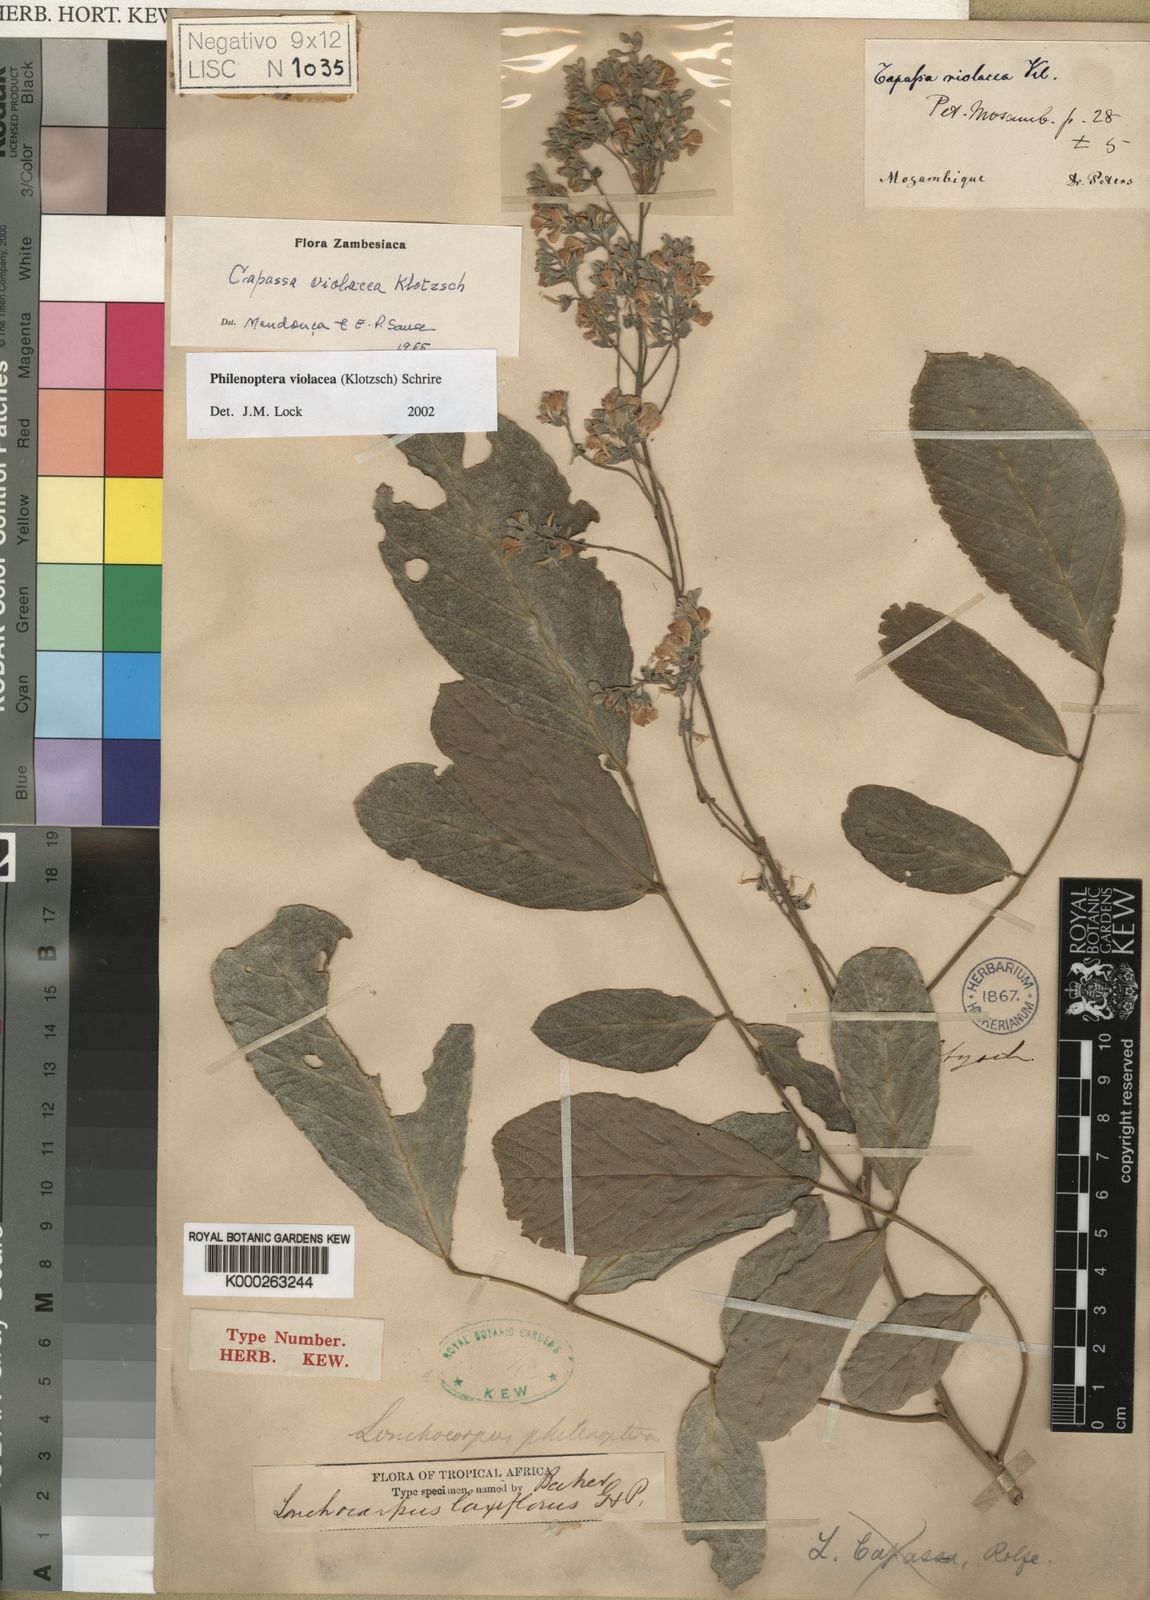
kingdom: Plantae
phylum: Tracheophyta
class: Magnoliopsida
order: Fabales
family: Fabaceae
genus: Philenoptera
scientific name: Philenoptera violacea
